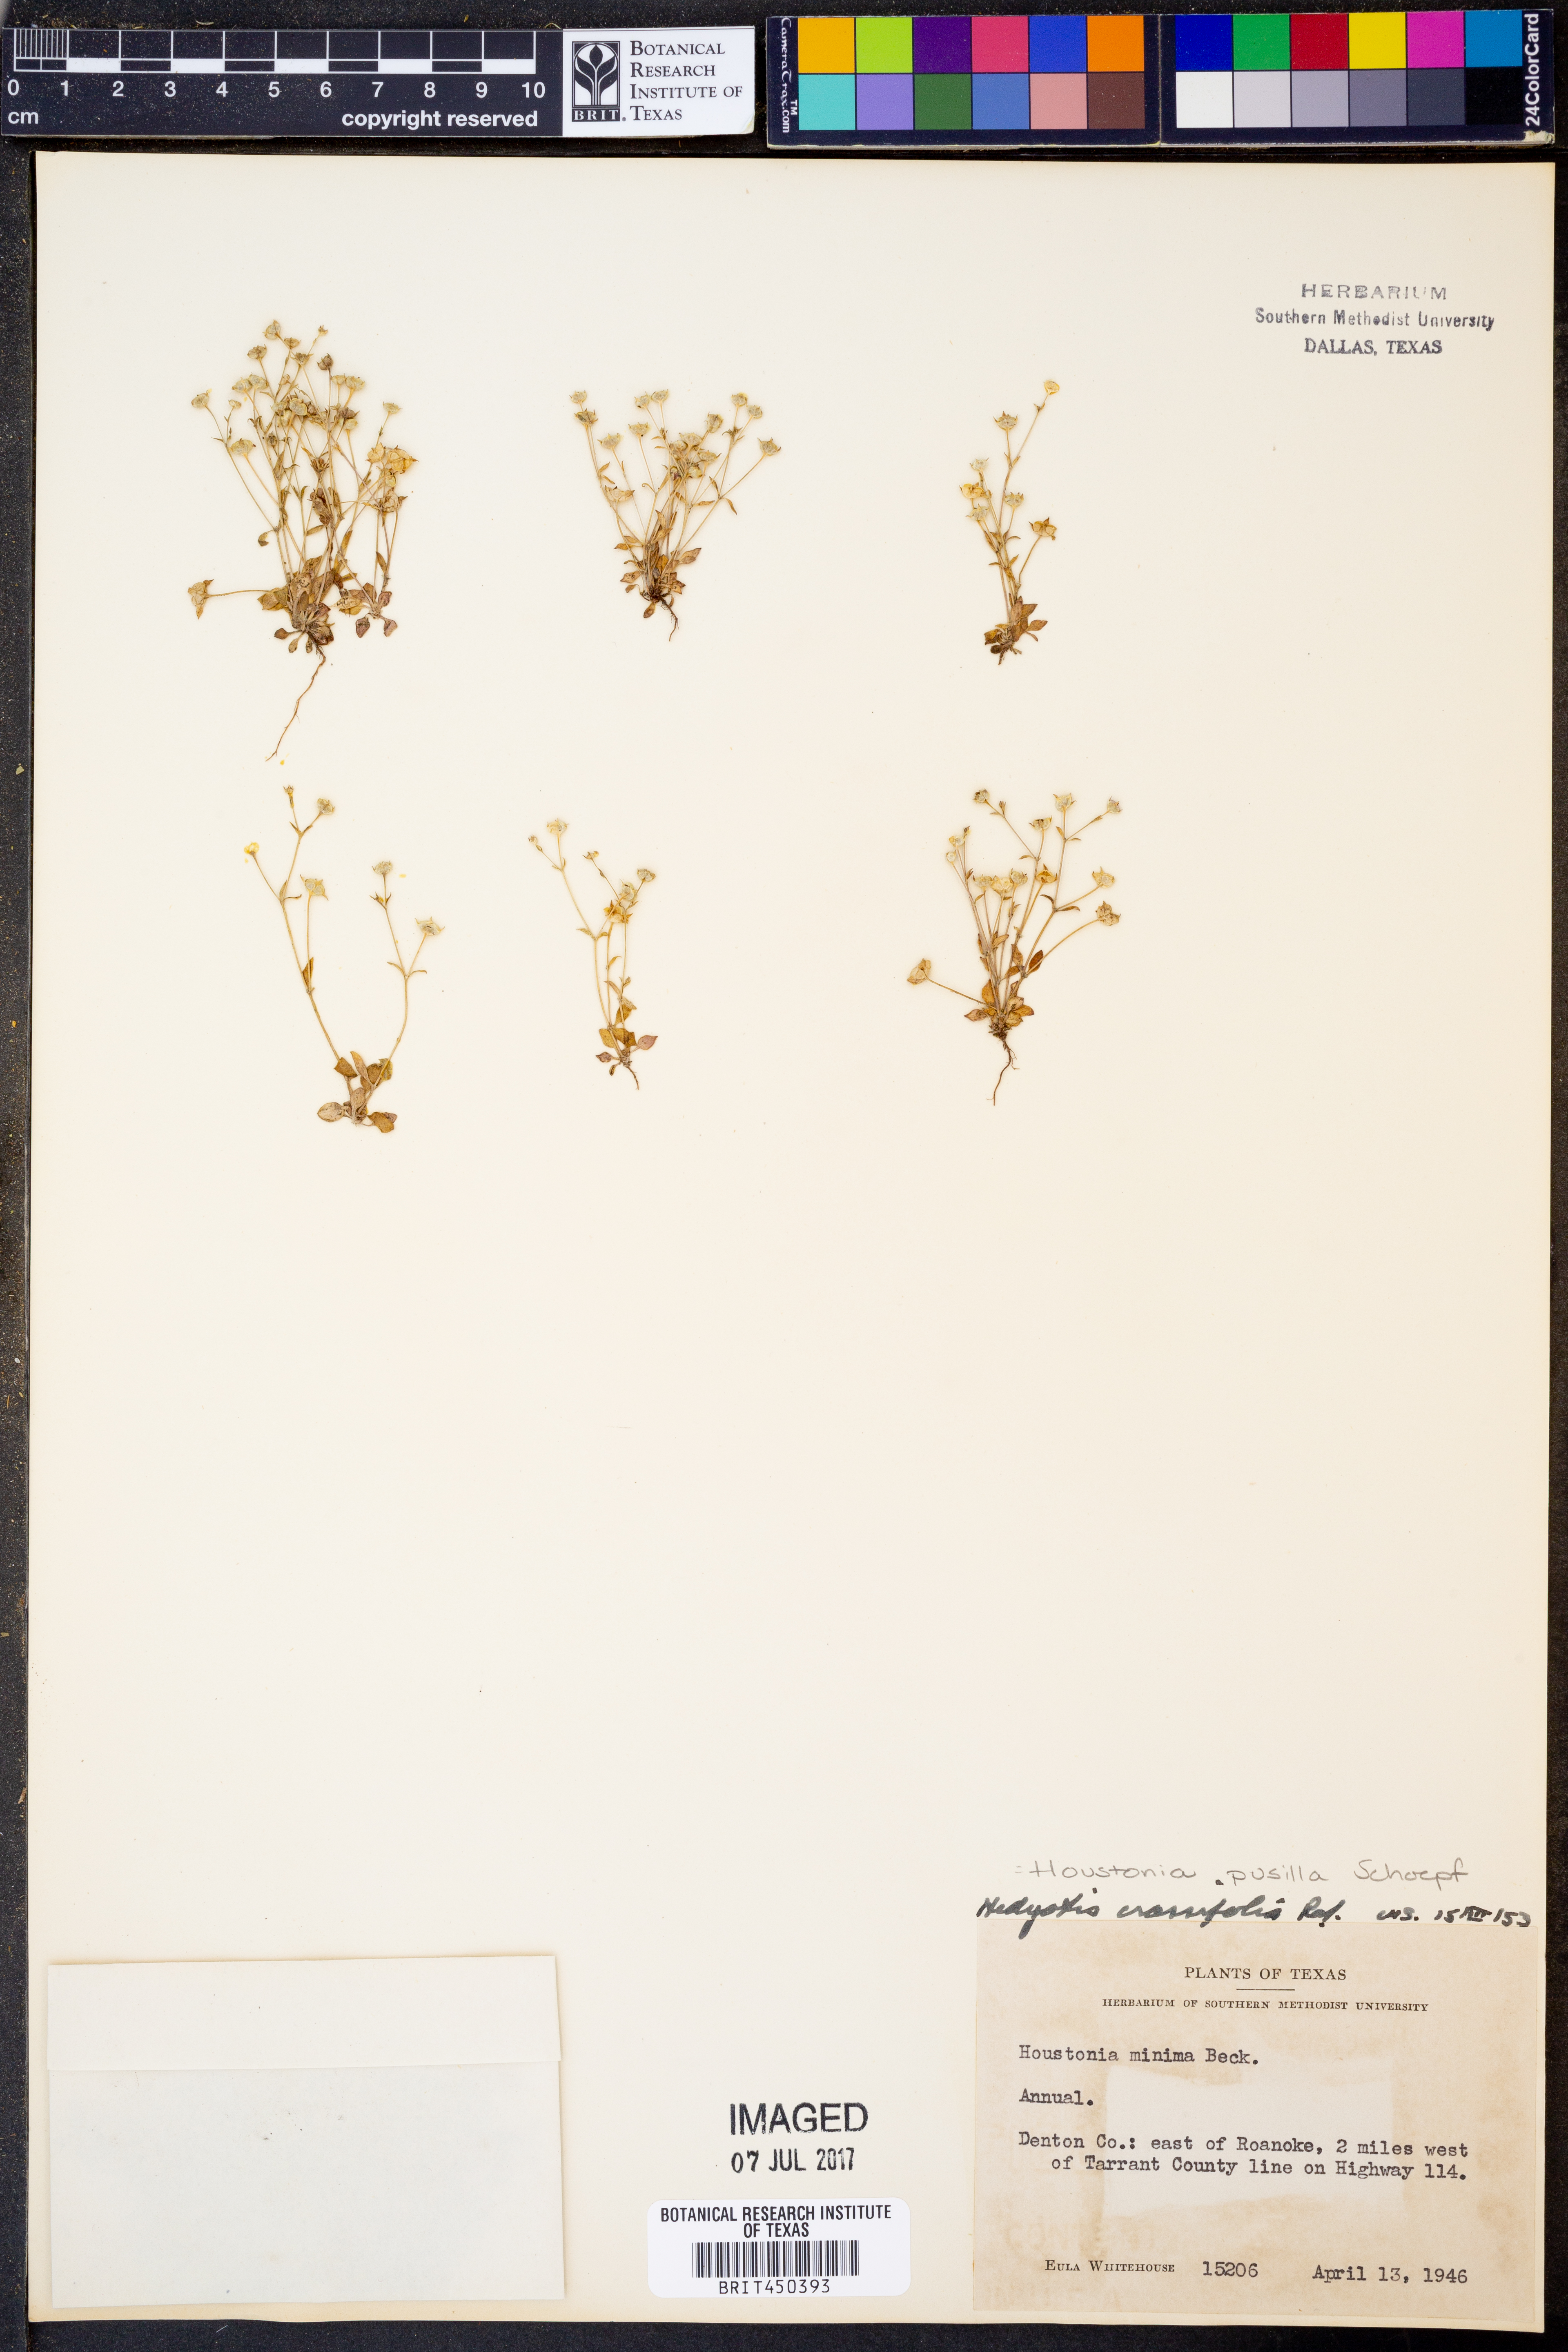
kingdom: Plantae
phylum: Tracheophyta
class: Magnoliopsida
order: Gentianales
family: Rubiaceae
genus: Houstonia
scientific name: Houstonia pusilla
